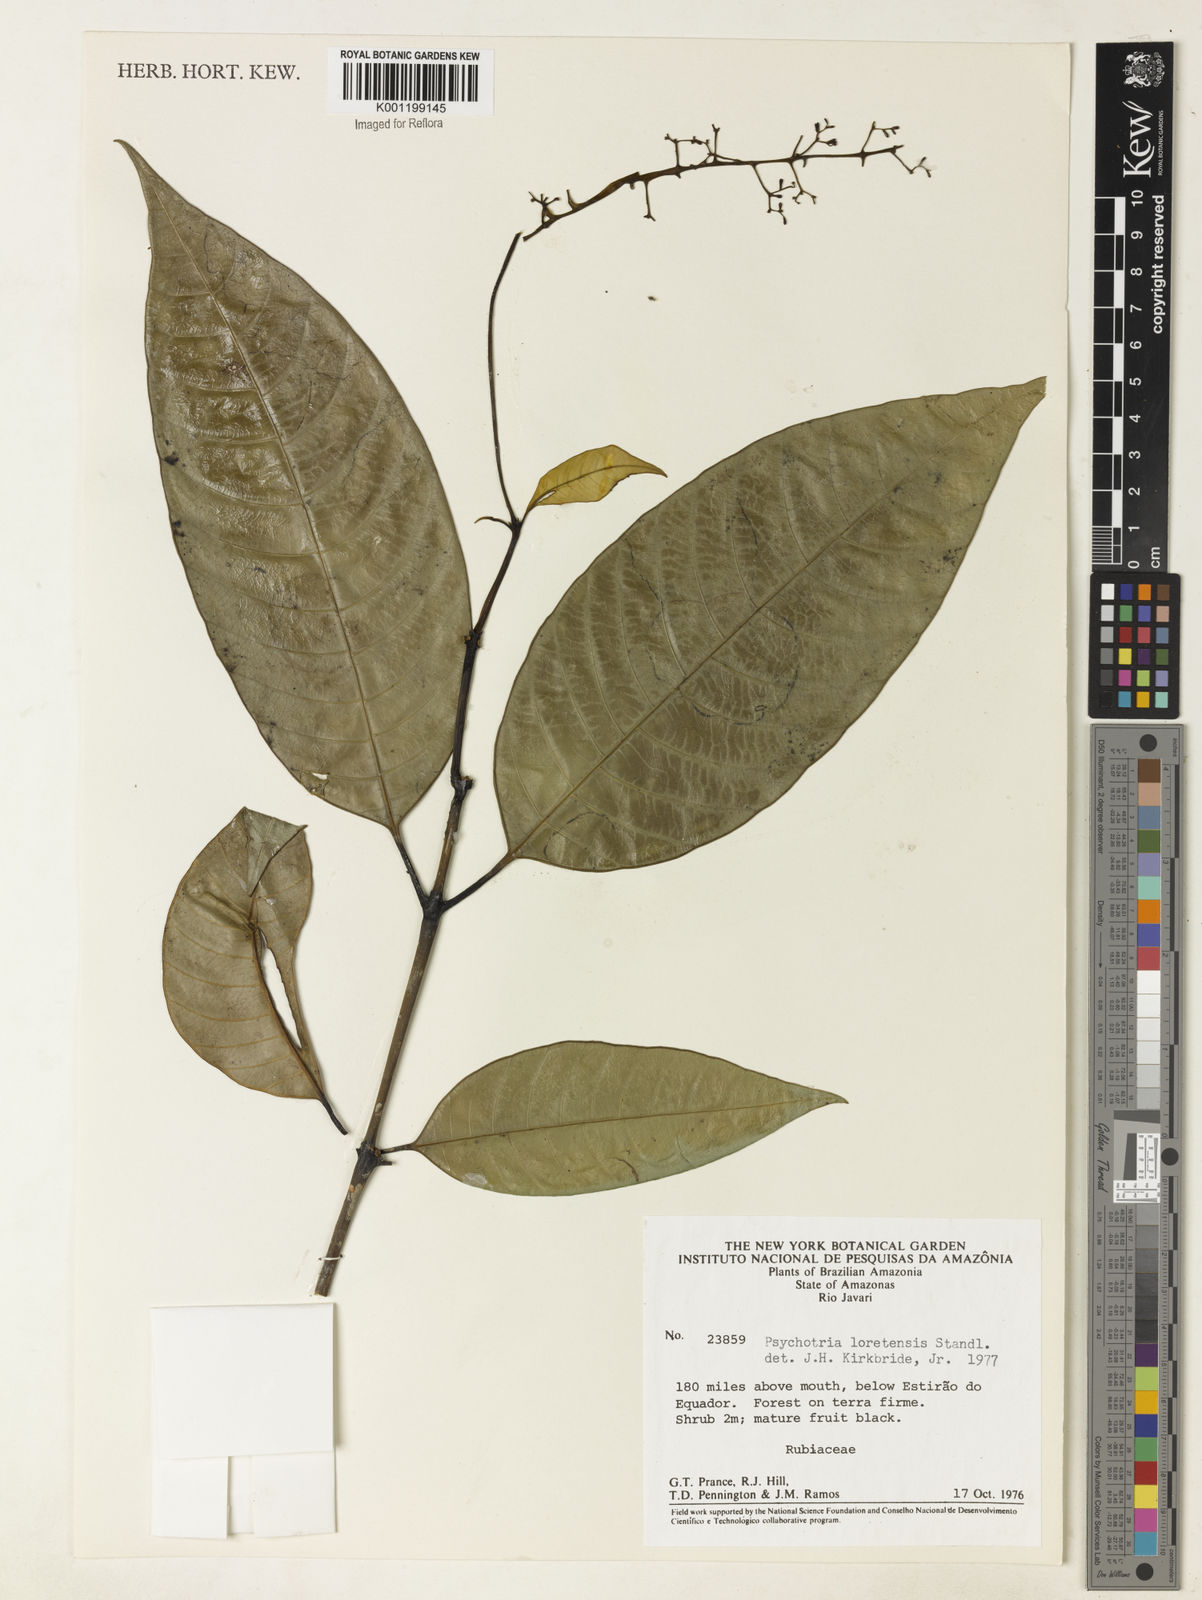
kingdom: Plantae
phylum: Tracheophyta
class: Magnoliopsida
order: Gentianales
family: Rubiaceae
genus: Palicourea
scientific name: Palicourea longicuspis
